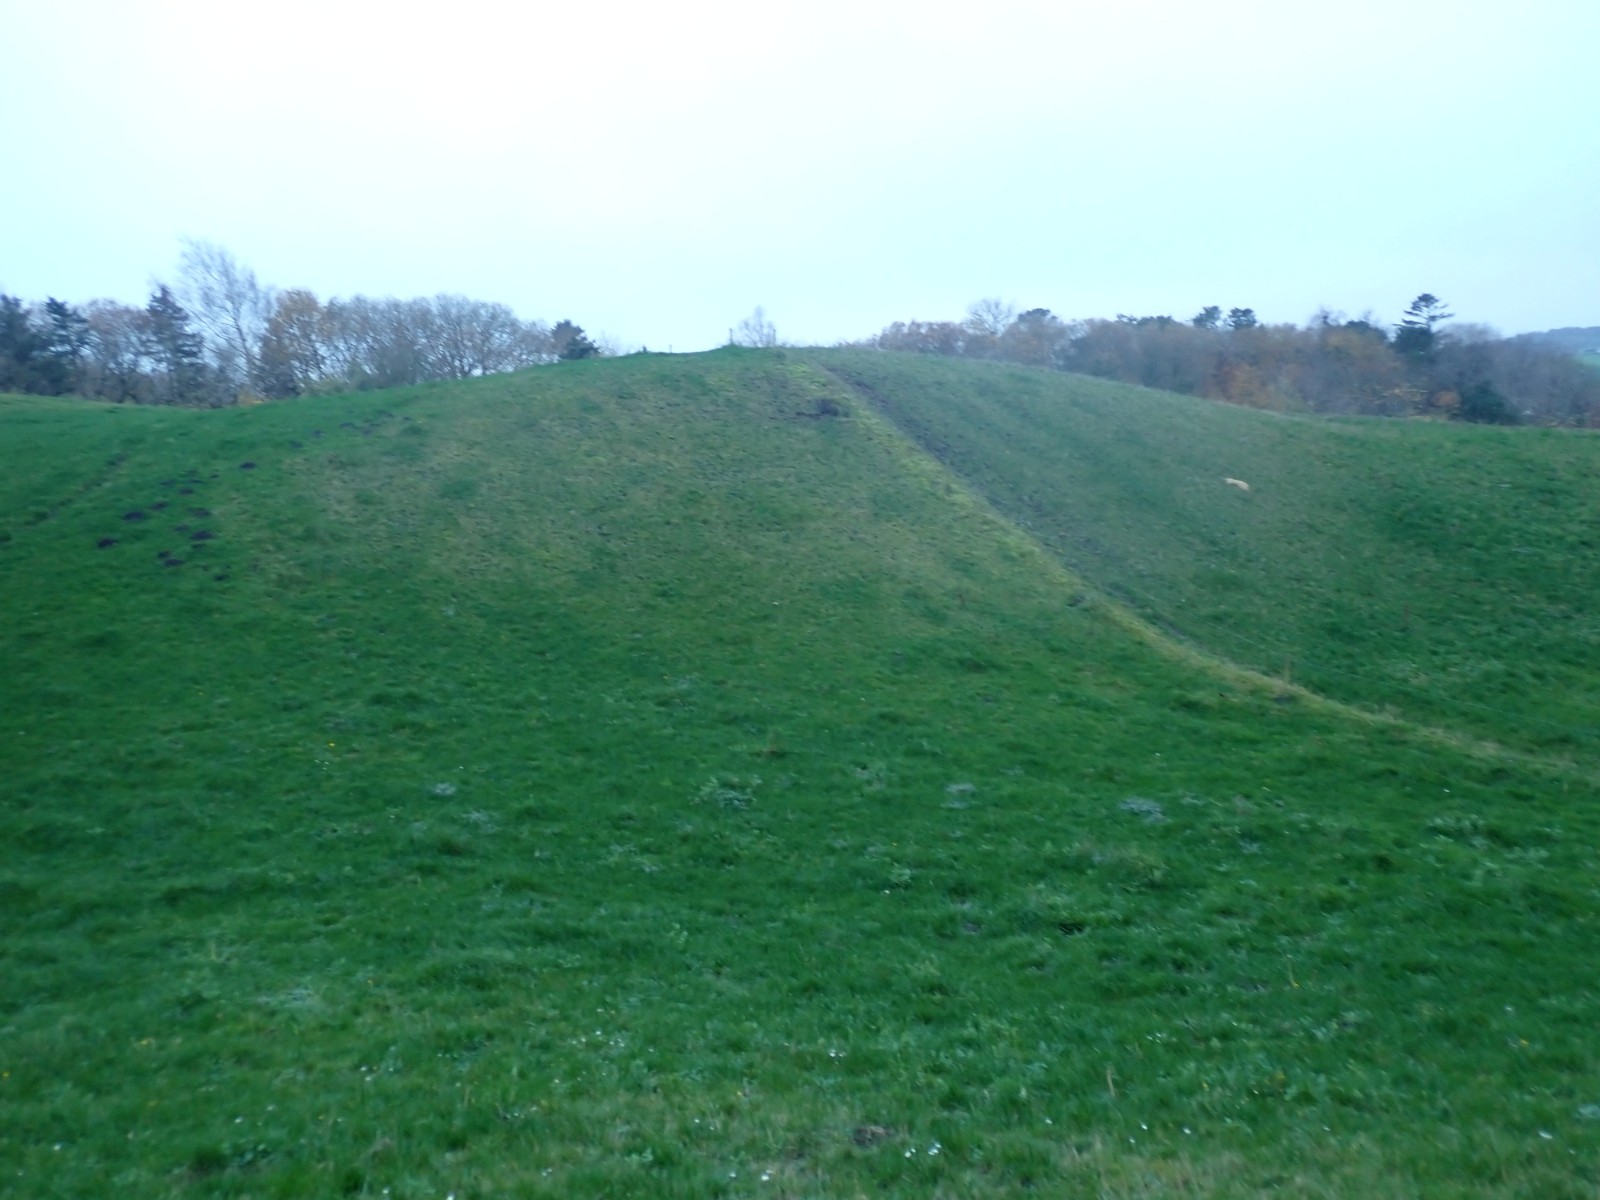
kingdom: Fungi
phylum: Basidiomycota
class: Agaricomycetes
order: Agaricales
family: Hygrophoraceae
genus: Hygrocybe
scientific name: Hygrocybe conica
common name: kegle-vokshat
